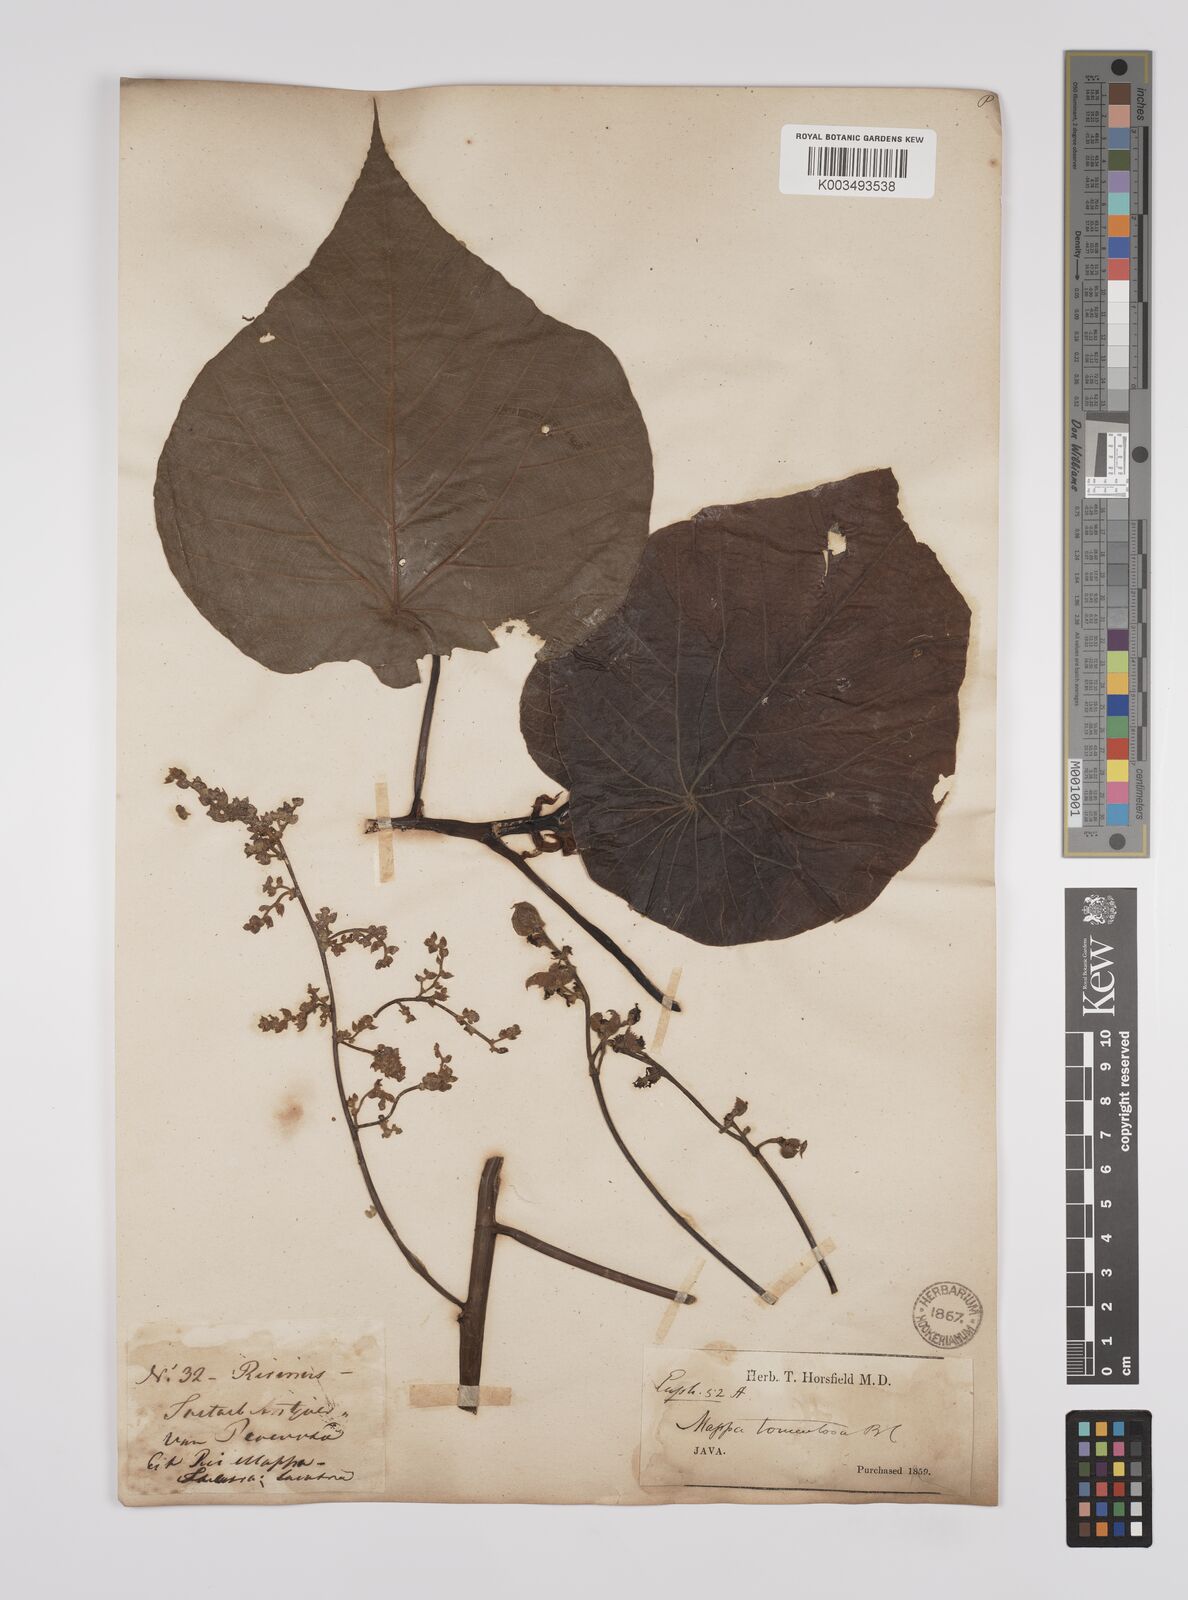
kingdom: Plantae
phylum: Tracheophyta
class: Magnoliopsida
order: Malpighiales
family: Euphorbiaceae
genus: Macaranga
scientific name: Macaranga tanarius
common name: Parasol leaf tree
